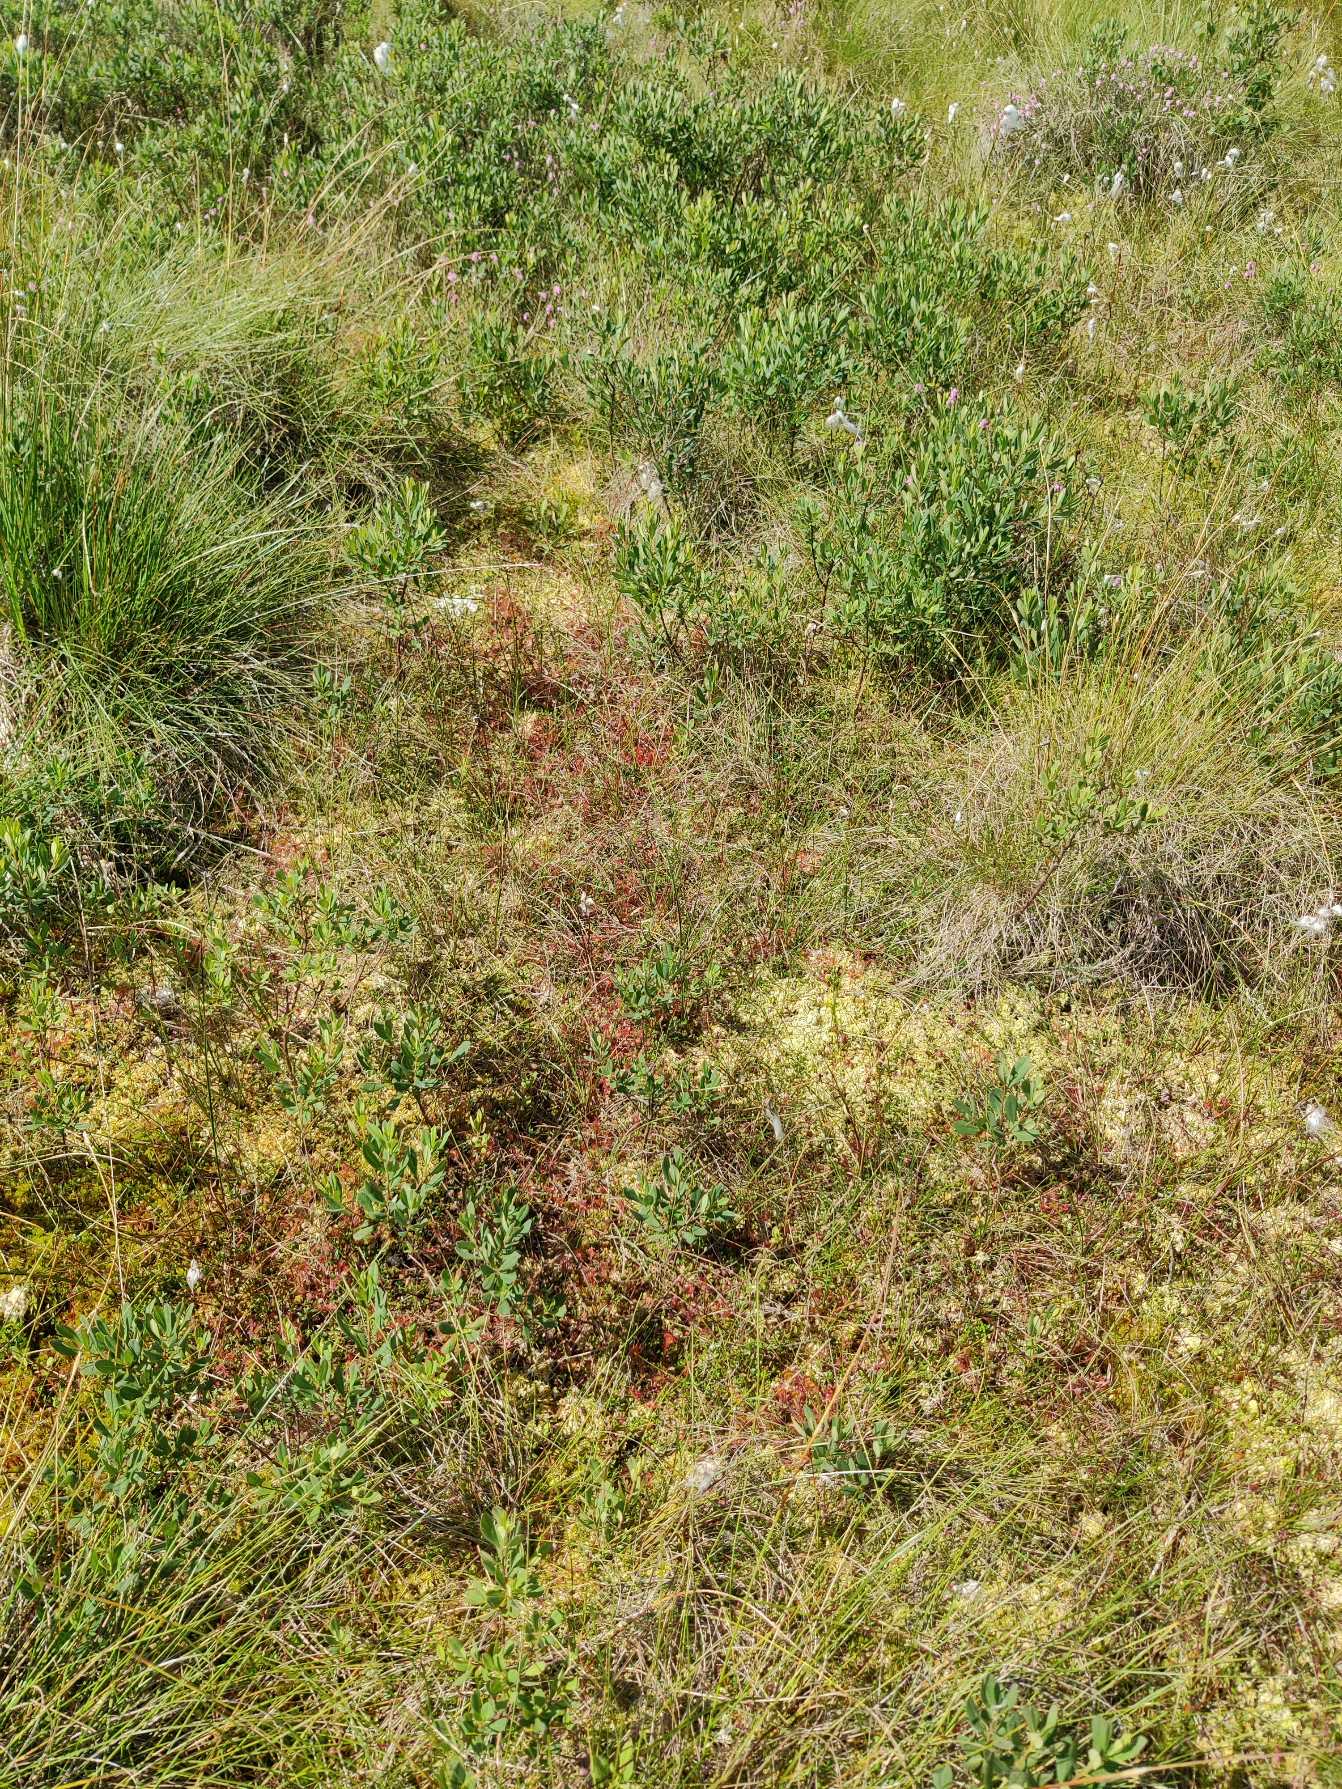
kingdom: Plantae
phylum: Tracheophyta
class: Magnoliopsida
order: Caryophyllales
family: Droseraceae
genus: Drosera
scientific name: Drosera rotundifolia
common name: Rundbladet soldug
